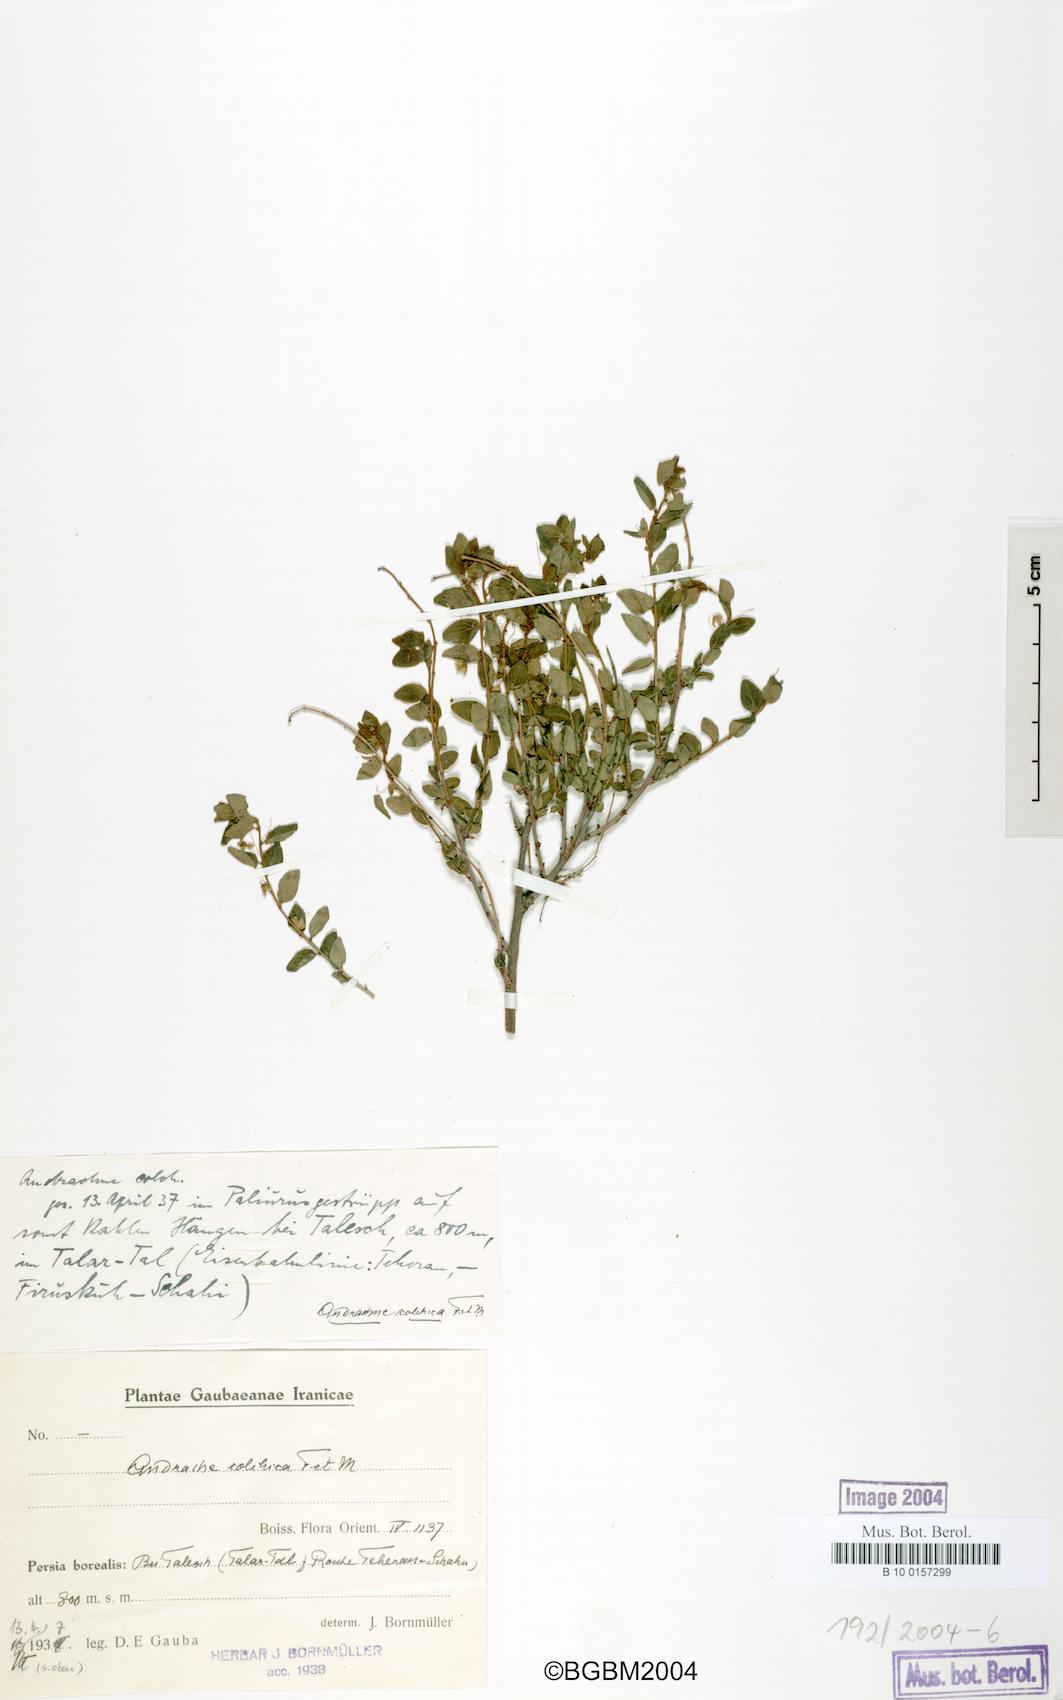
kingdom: Plantae
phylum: Tracheophyta
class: Magnoliopsida
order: Malpighiales
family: Phyllanthaceae
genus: Leptopus
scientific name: Leptopus chinensis
